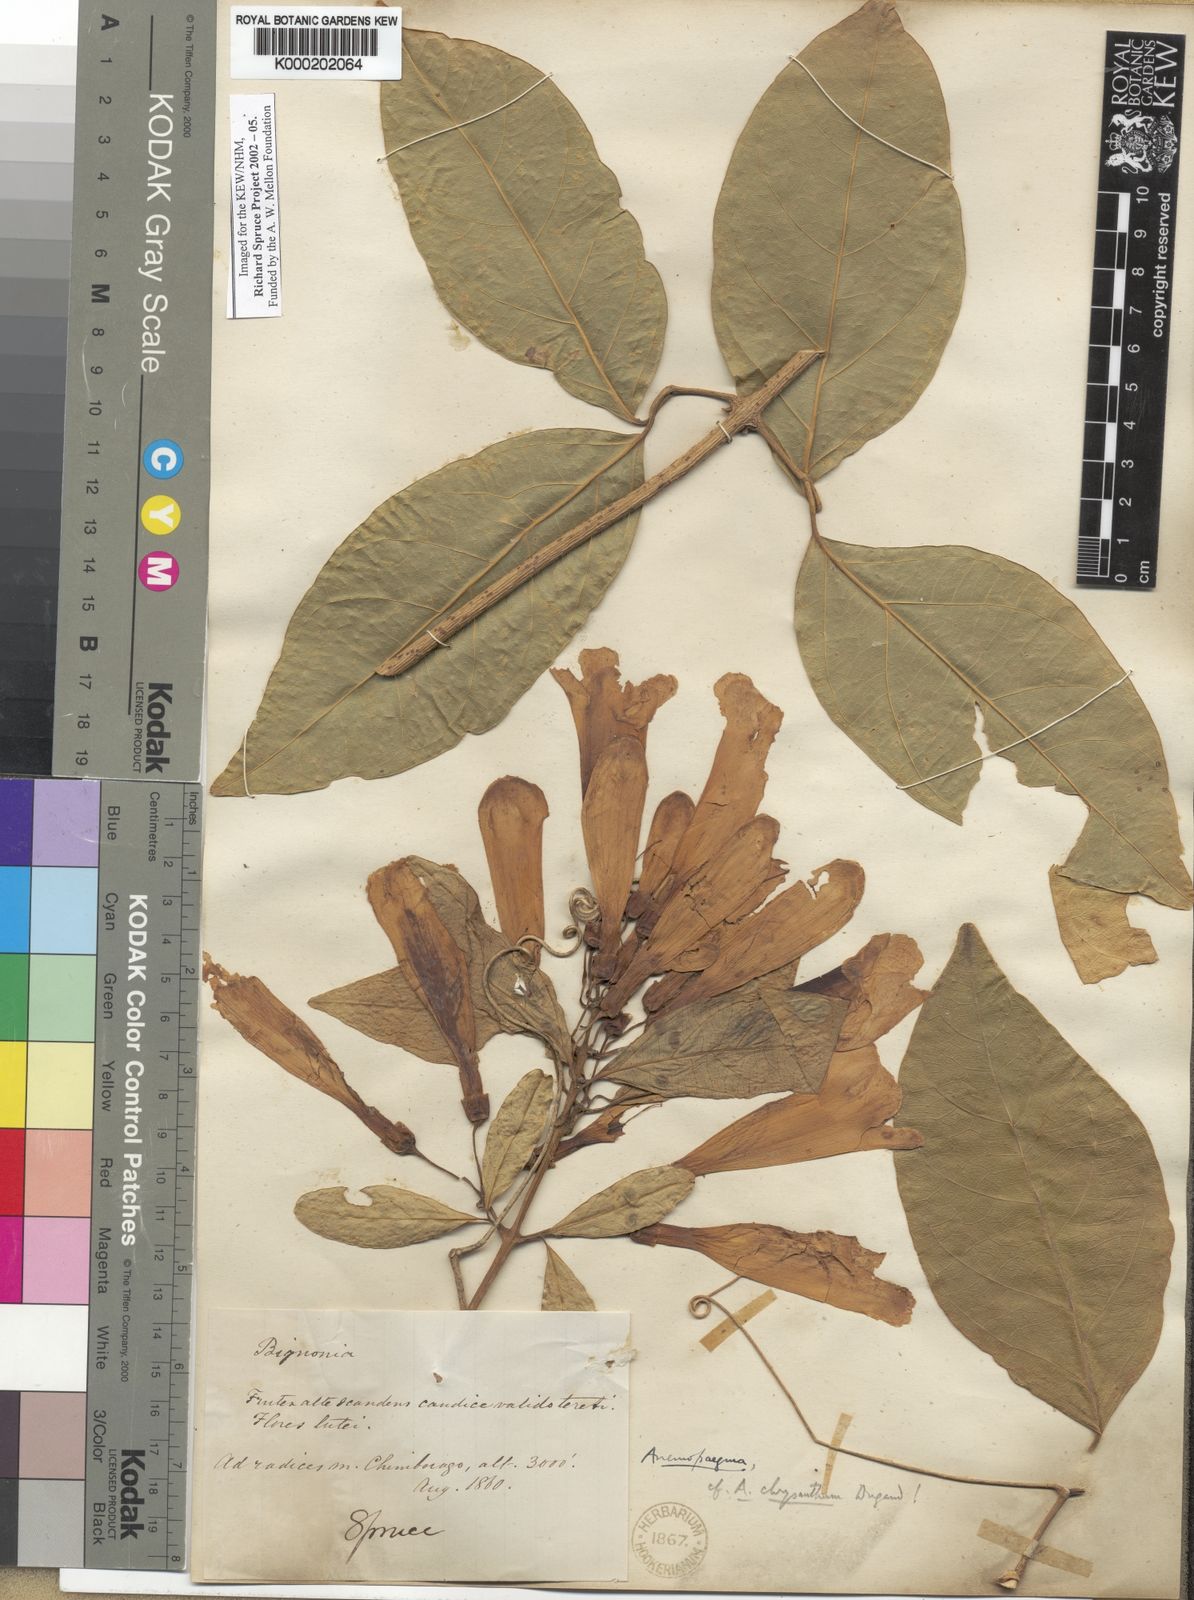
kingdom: Plantae
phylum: Tracheophyta
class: Magnoliopsida
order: Lamiales
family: Bignoniaceae
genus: Anemopaegma
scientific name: Anemopaegma chrysanthum
